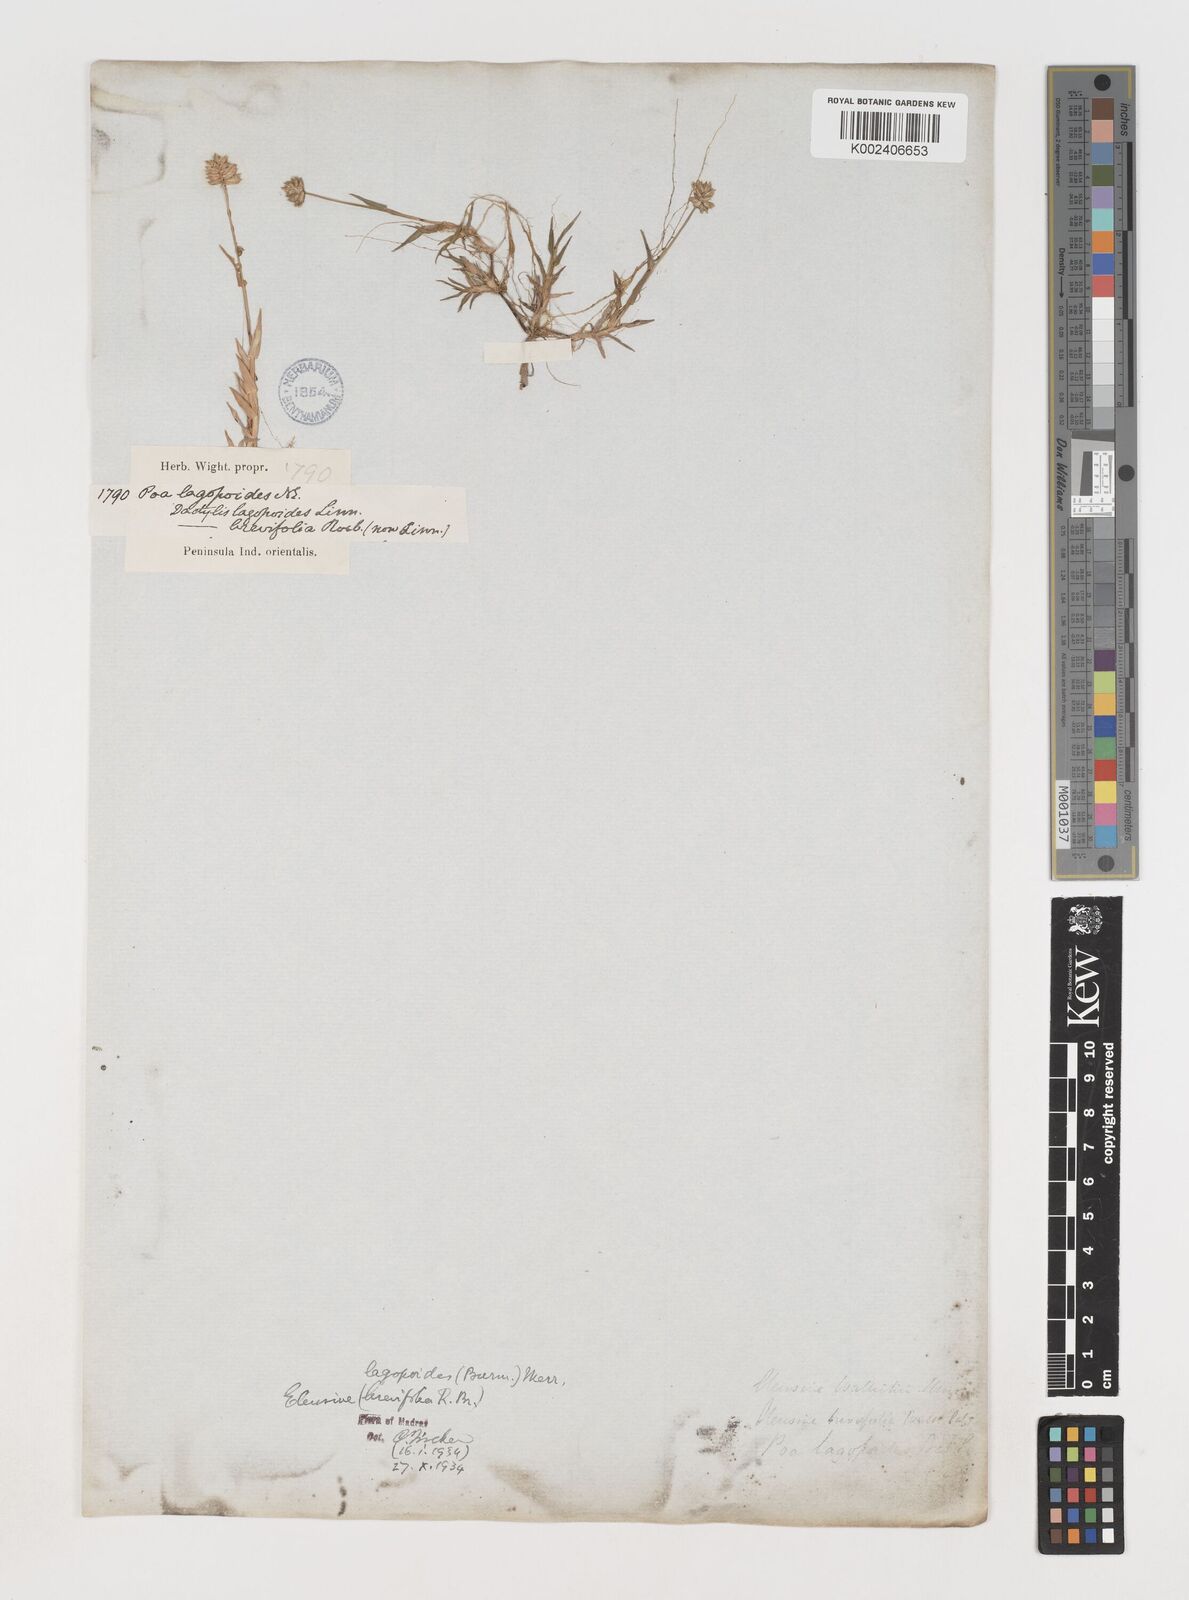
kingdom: Plantae
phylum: Tracheophyta
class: Liliopsida
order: Poales
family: Poaceae
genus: Coelachyrum
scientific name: Coelachyrum lagopoides
